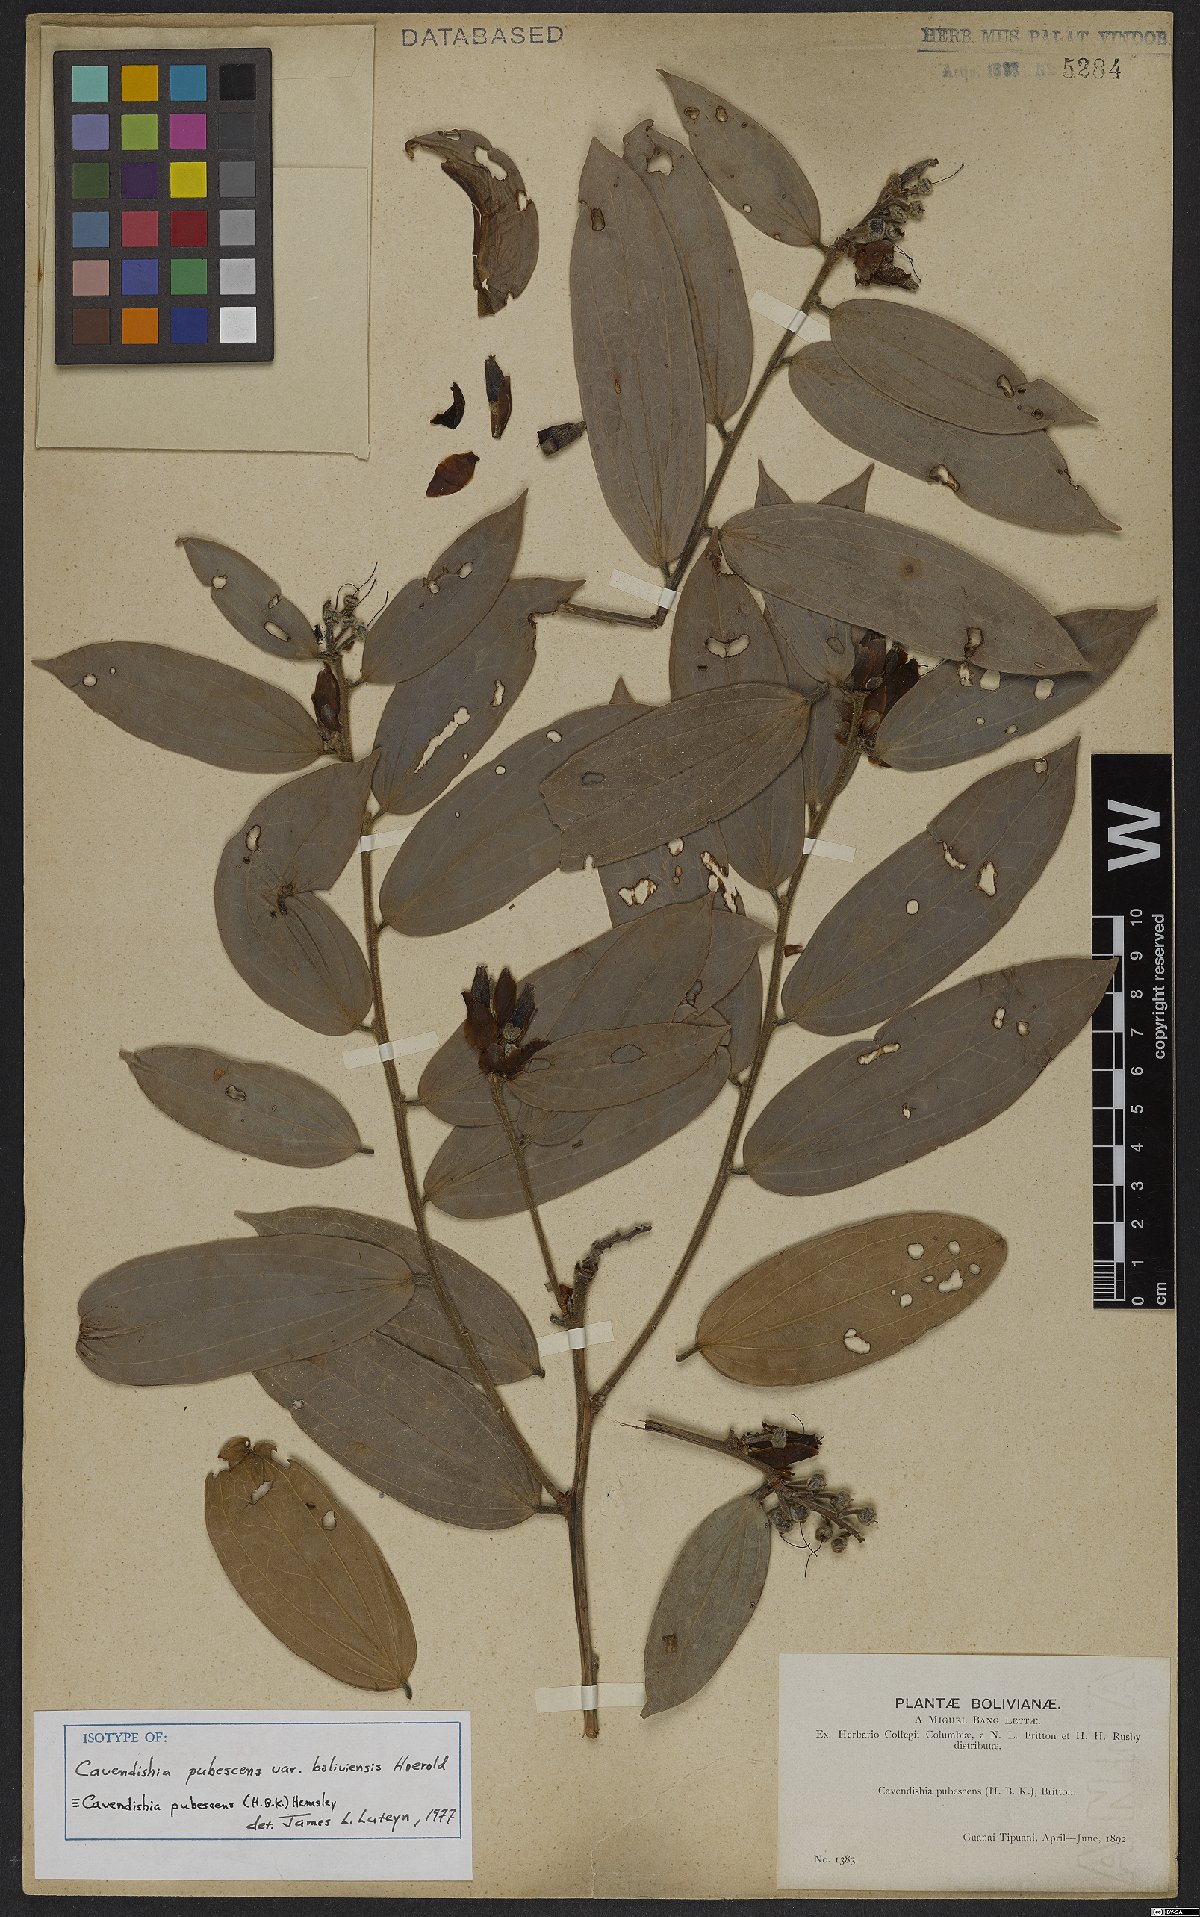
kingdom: Plantae
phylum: Tracheophyta
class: Magnoliopsida
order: Ericales
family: Ericaceae
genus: Cavendishia
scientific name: Cavendishia pubescens
